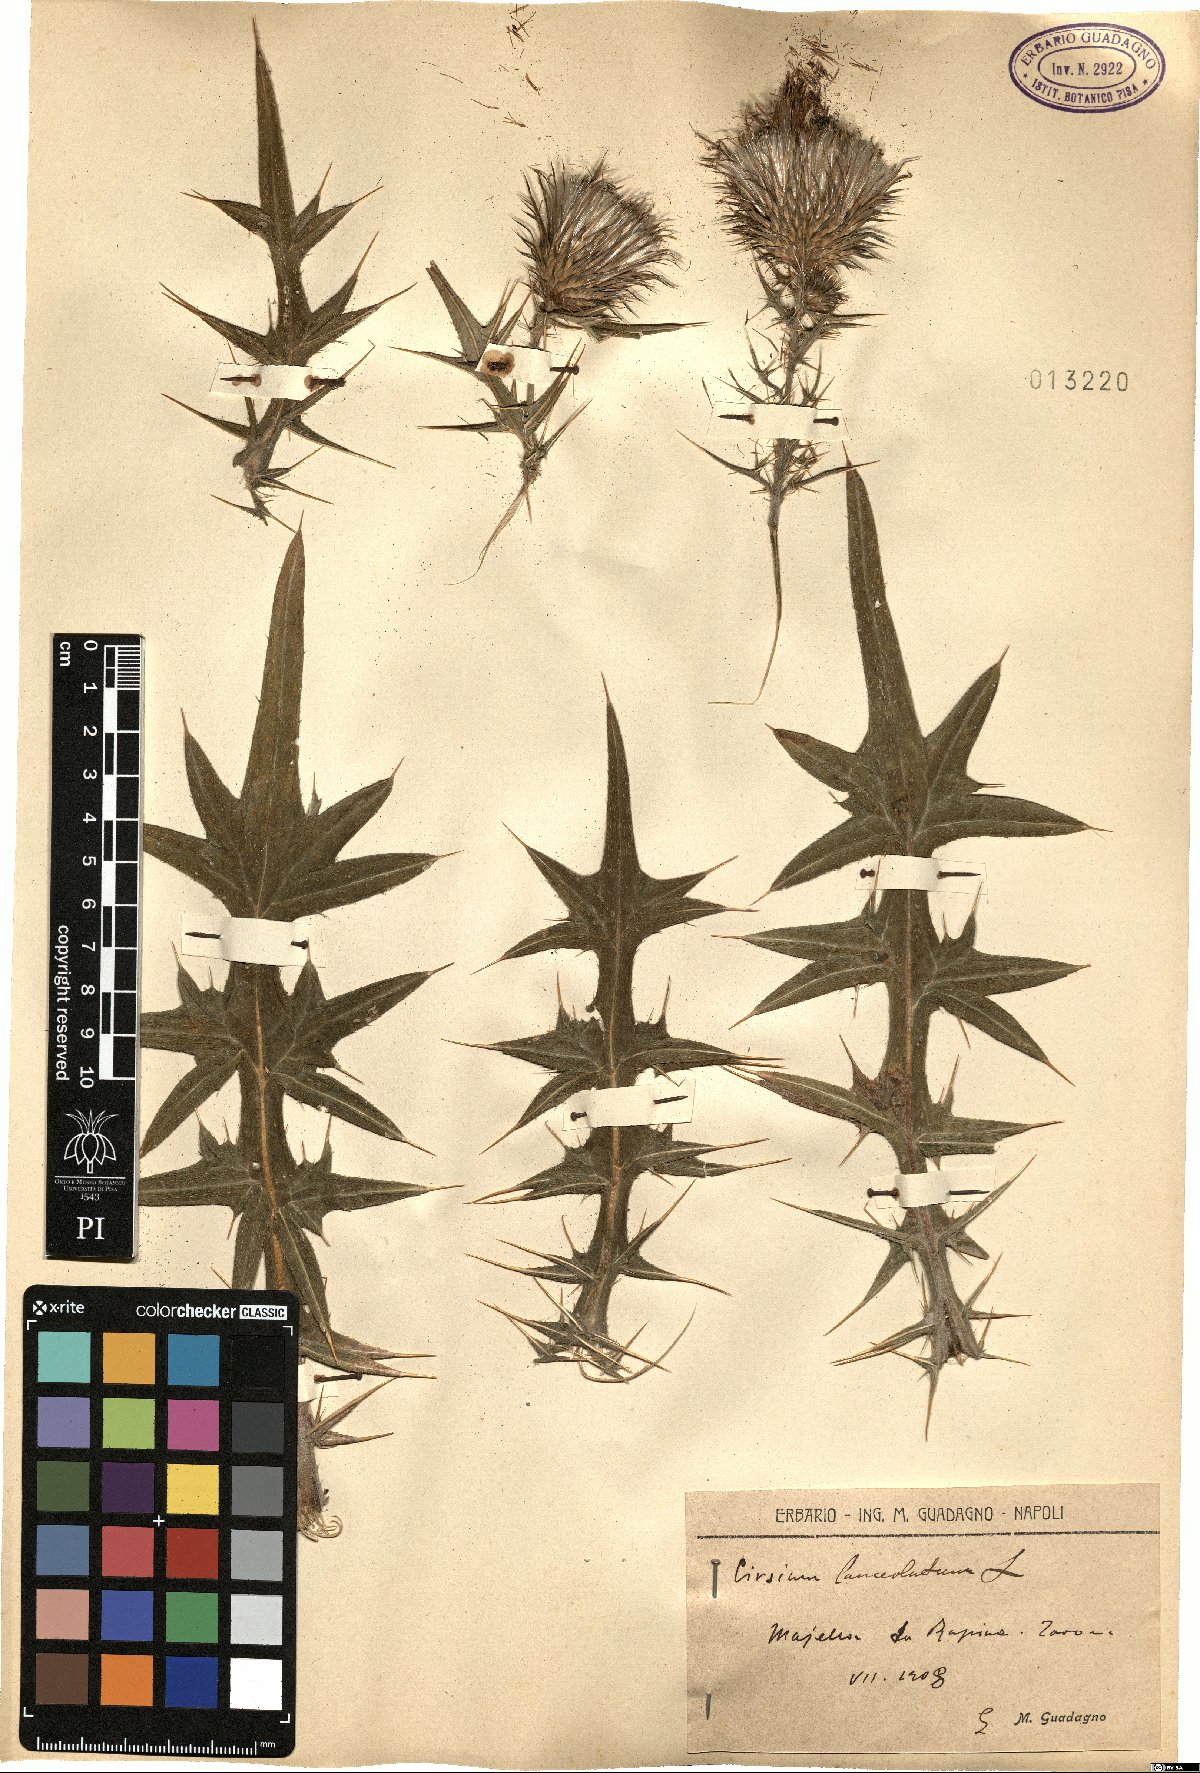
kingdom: Plantae
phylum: Tracheophyta
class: Magnoliopsida
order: Asterales
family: Asteraceae
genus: Cirsium
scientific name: Cirsium vulgare
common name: Bull thistle
